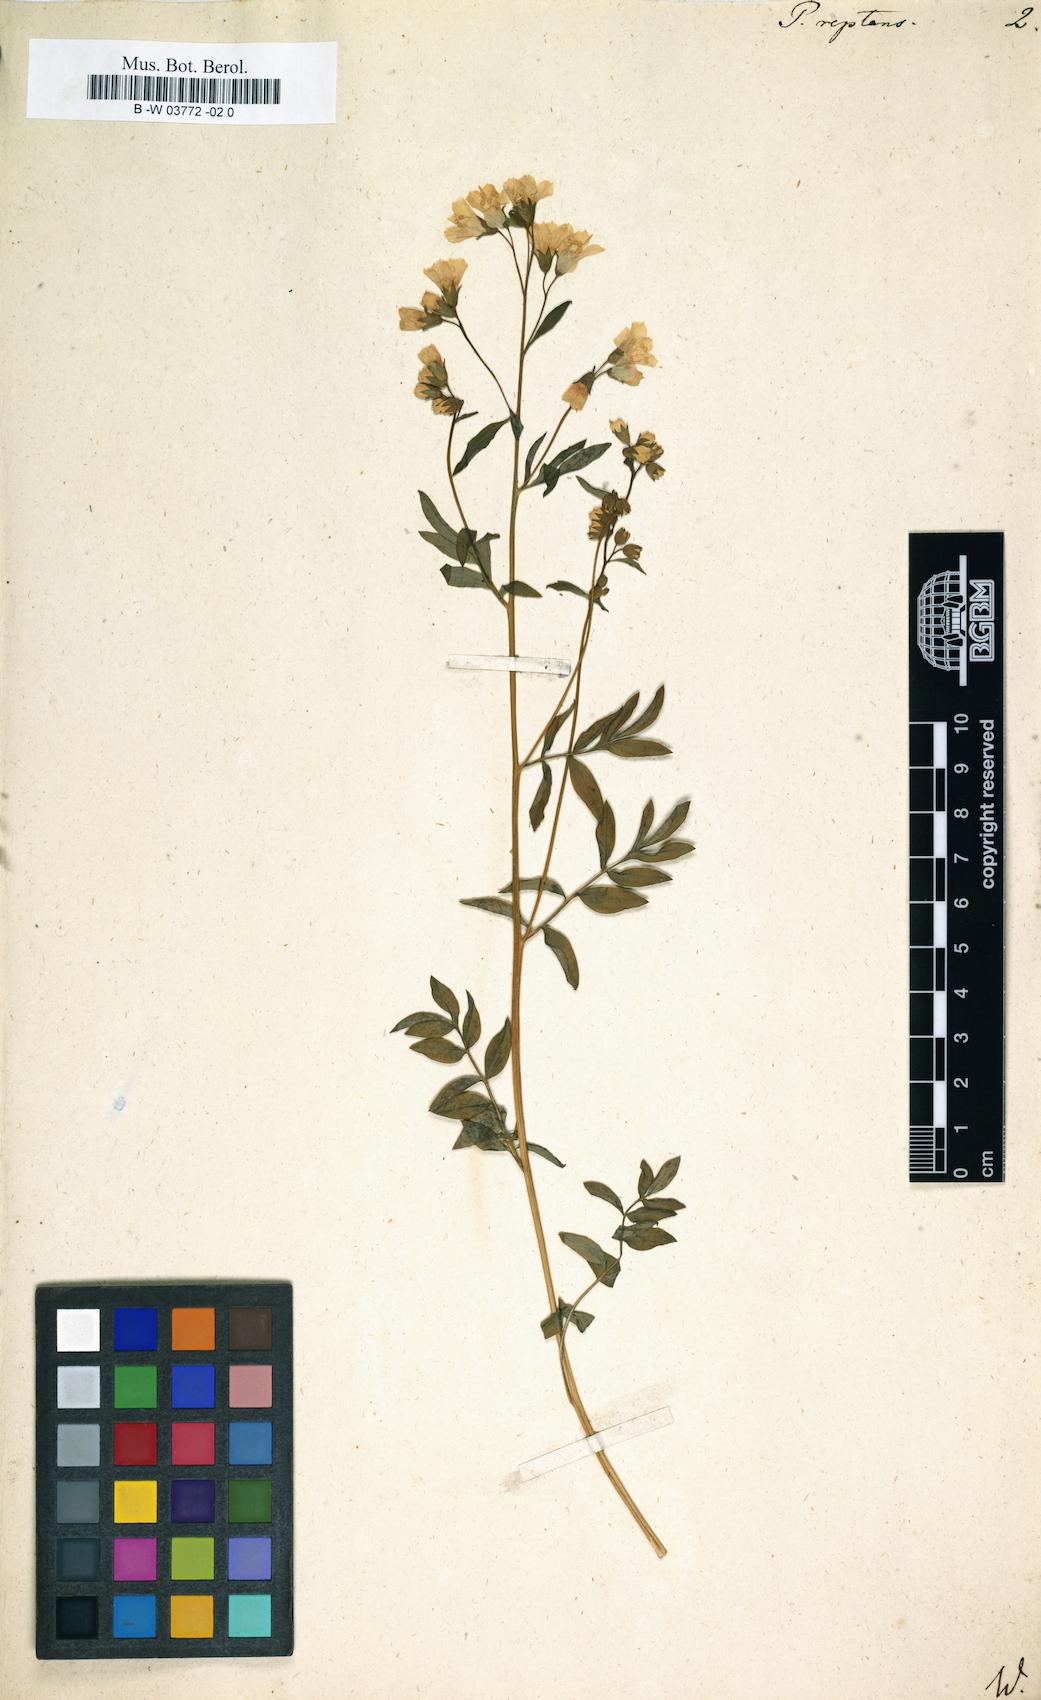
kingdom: Plantae
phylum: Tracheophyta
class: Magnoliopsida
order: Ericales
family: Polemoniaceae
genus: Polemonium
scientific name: Polemonium reptans
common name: Creeping jacob's-ladder
